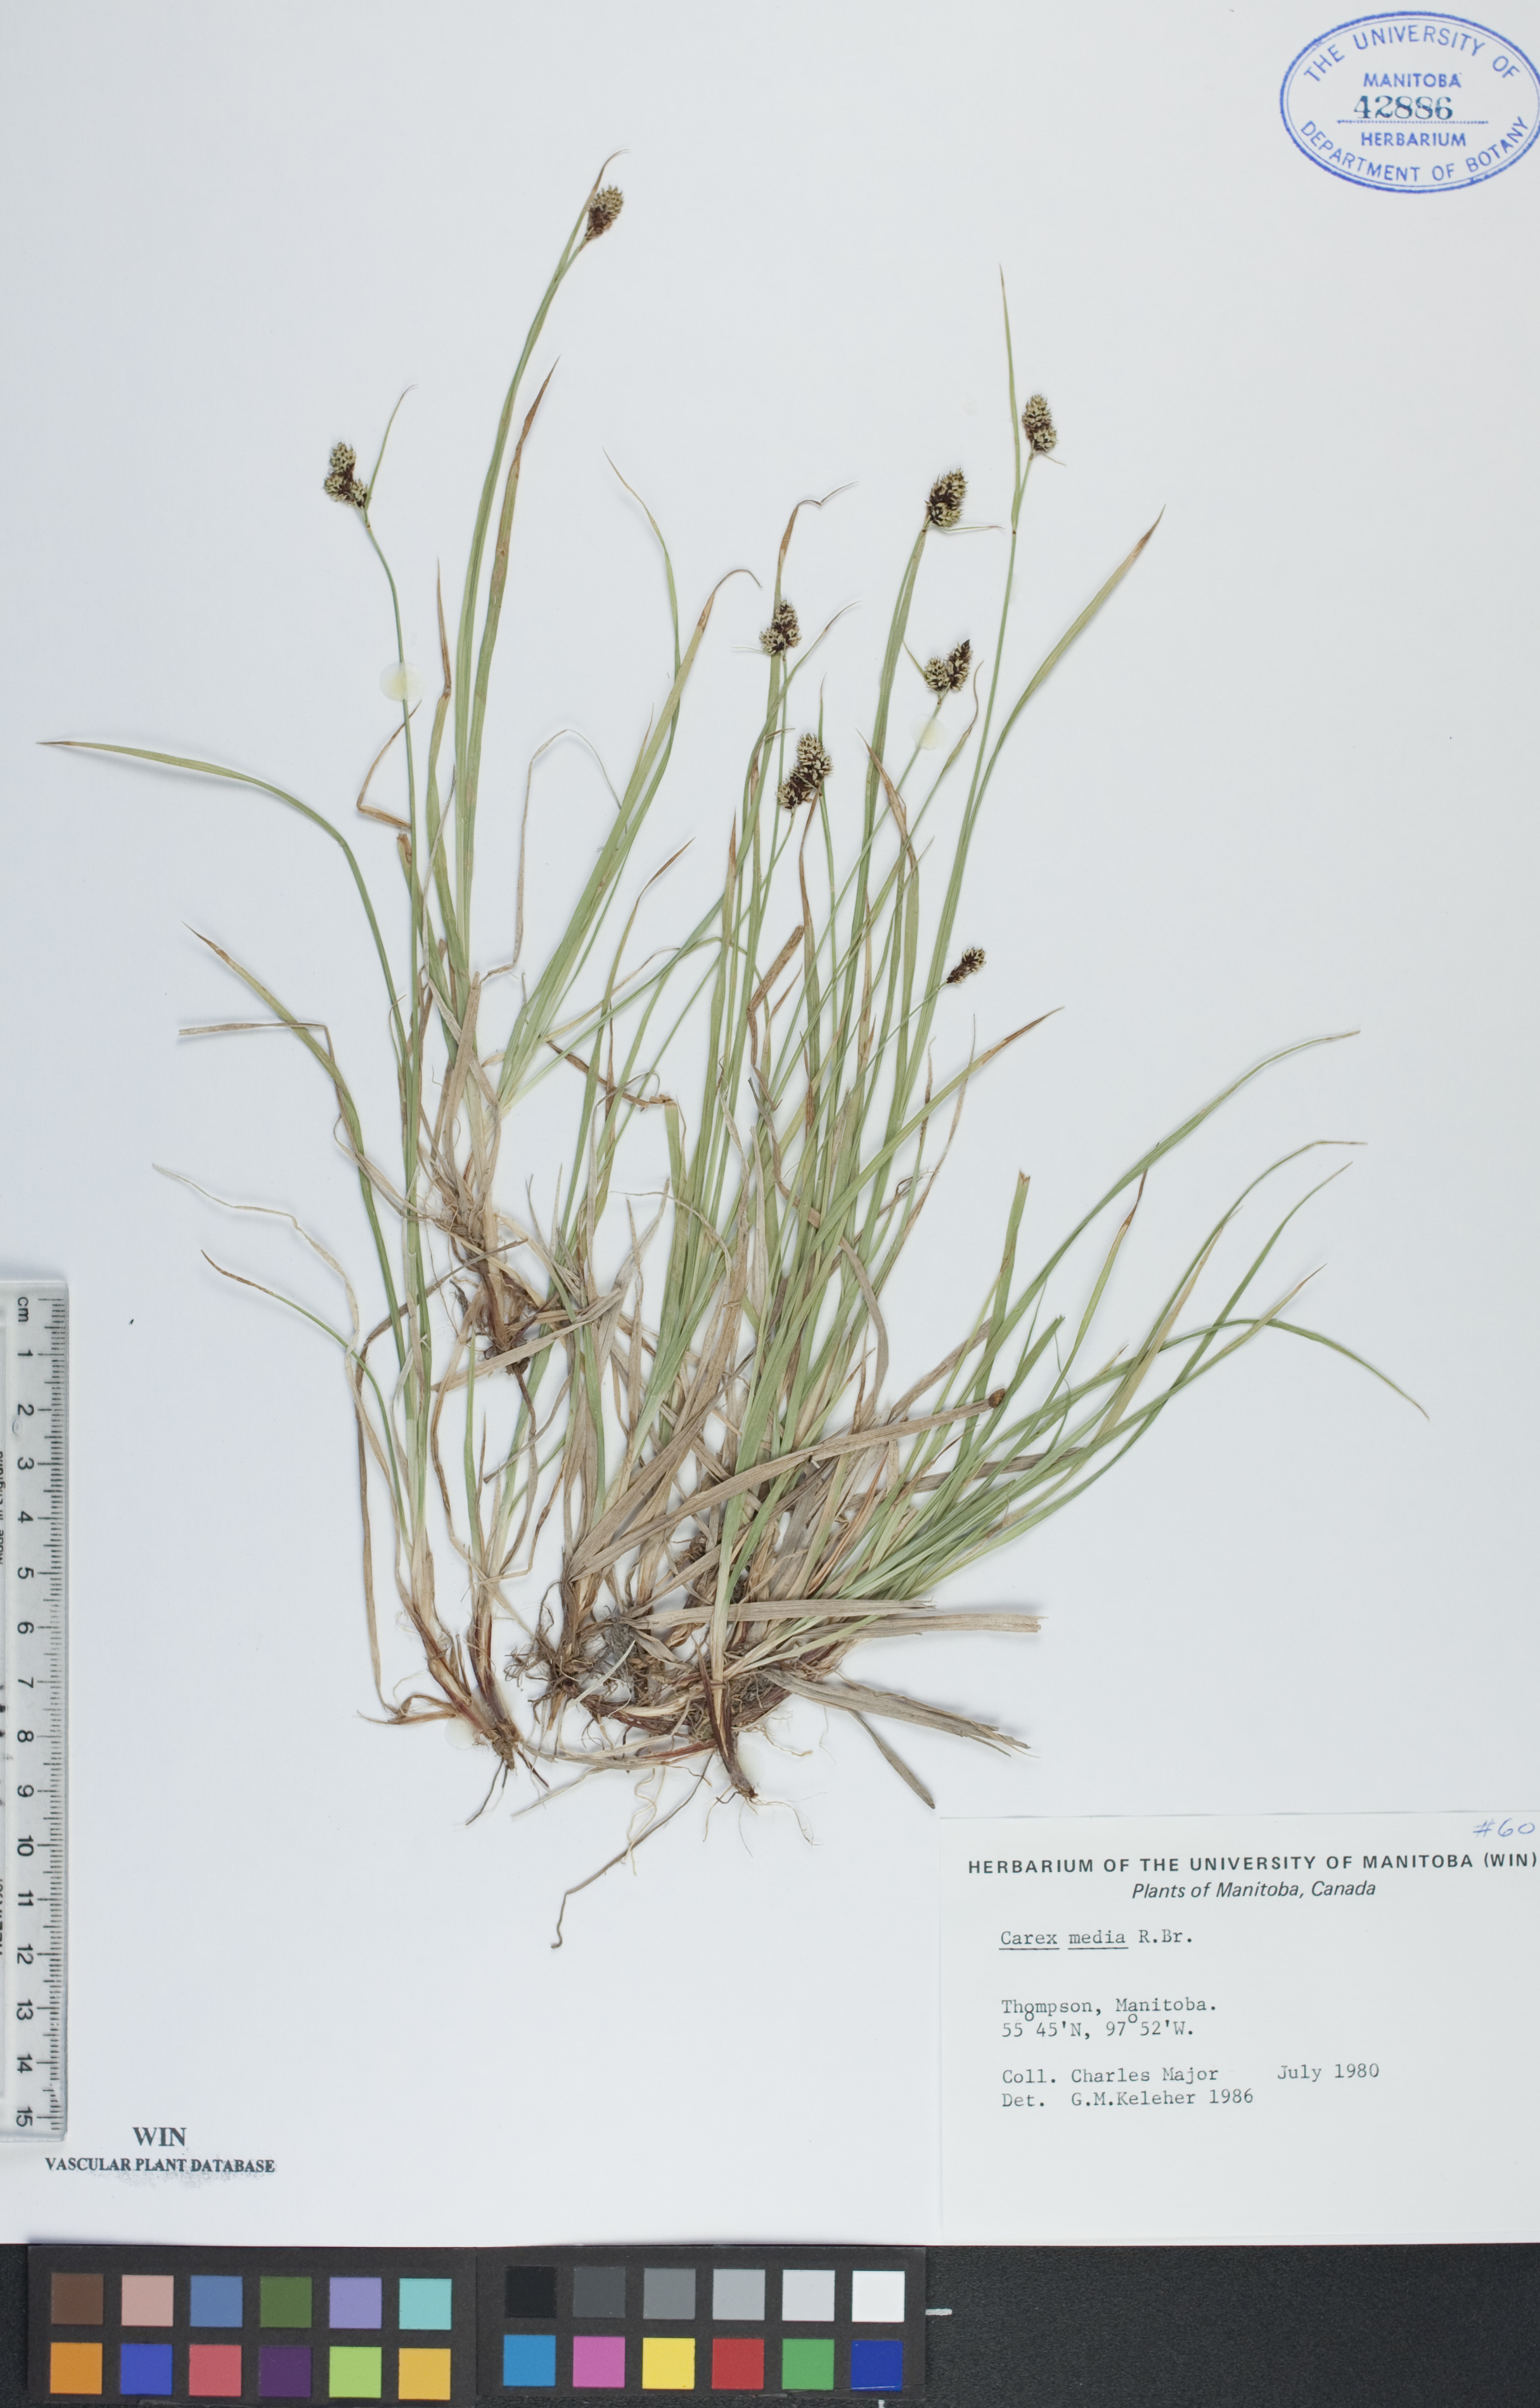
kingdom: Plantae
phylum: Tracheophyta
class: Liliopsida
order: Poales
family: Cyperaceae
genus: Carex
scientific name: Carex media
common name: Alpine sedge
